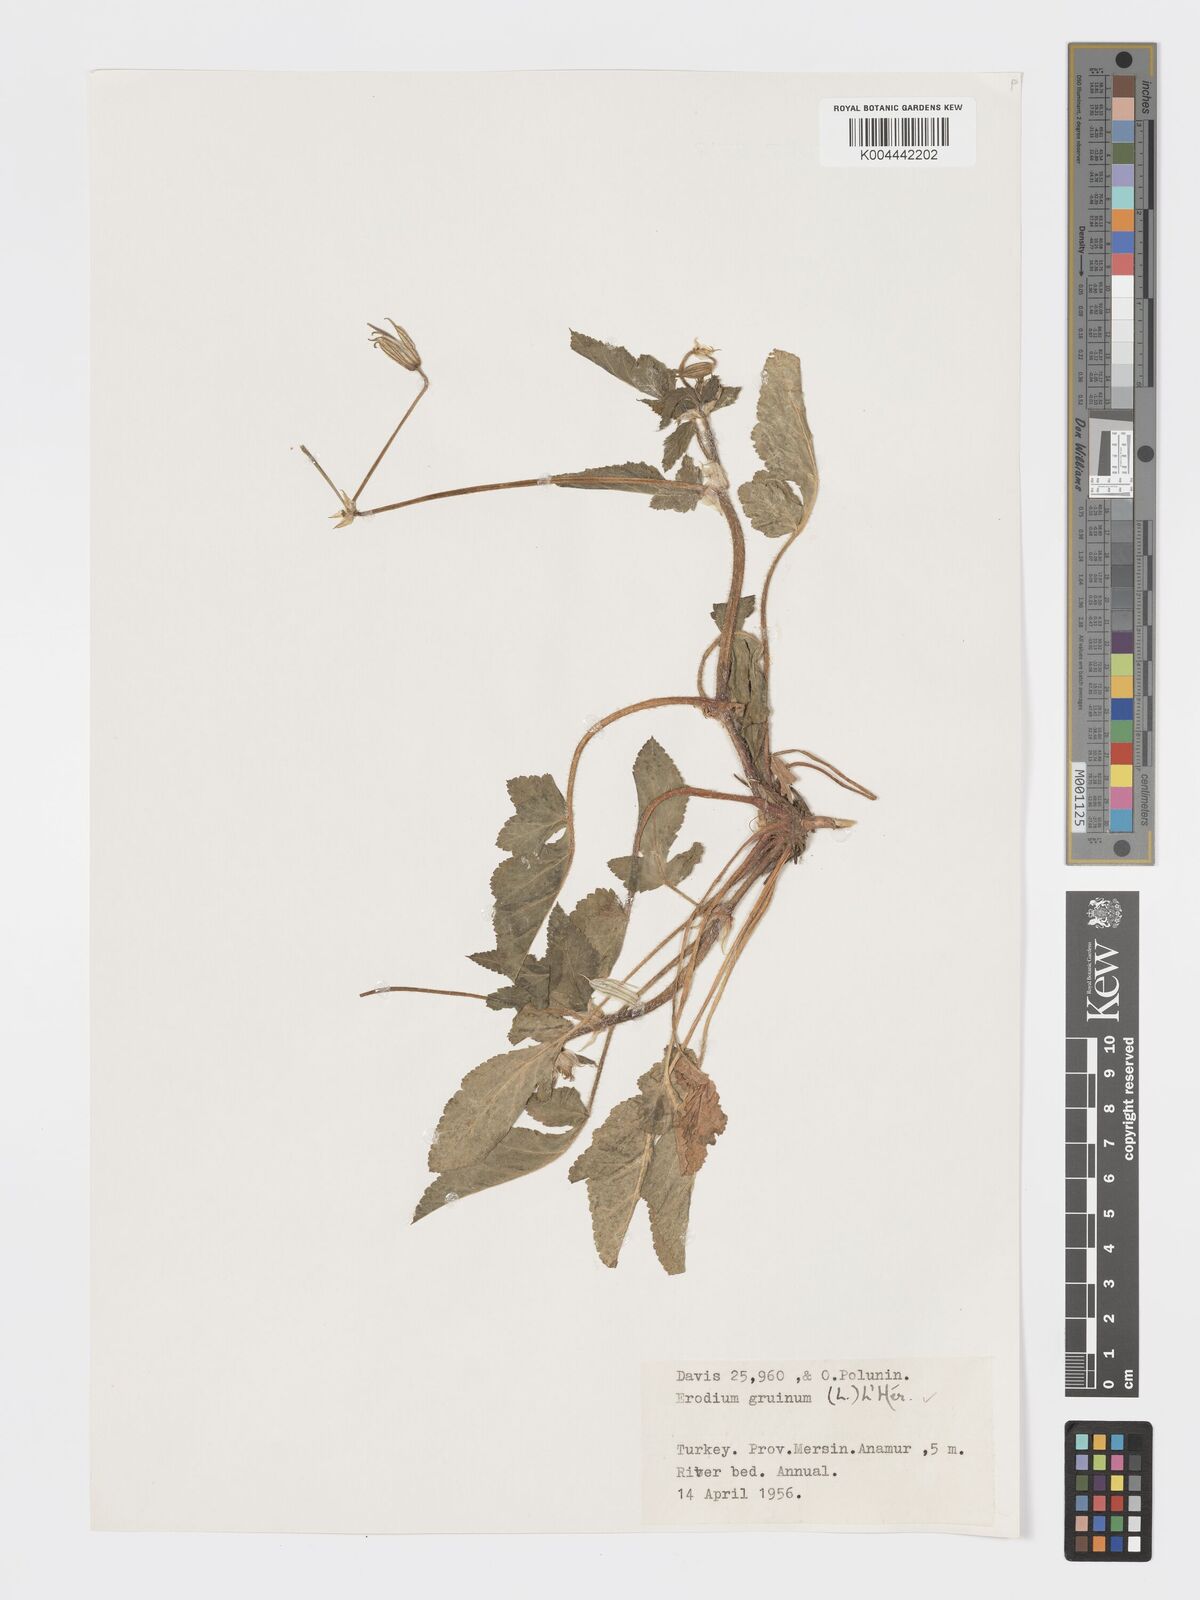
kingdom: Plantae
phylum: Tracheophyta
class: Magnoliopsida
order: Geraniales
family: Geraniaceae
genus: Erodium
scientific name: Erodium gruinum
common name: Iranian stork's bill
